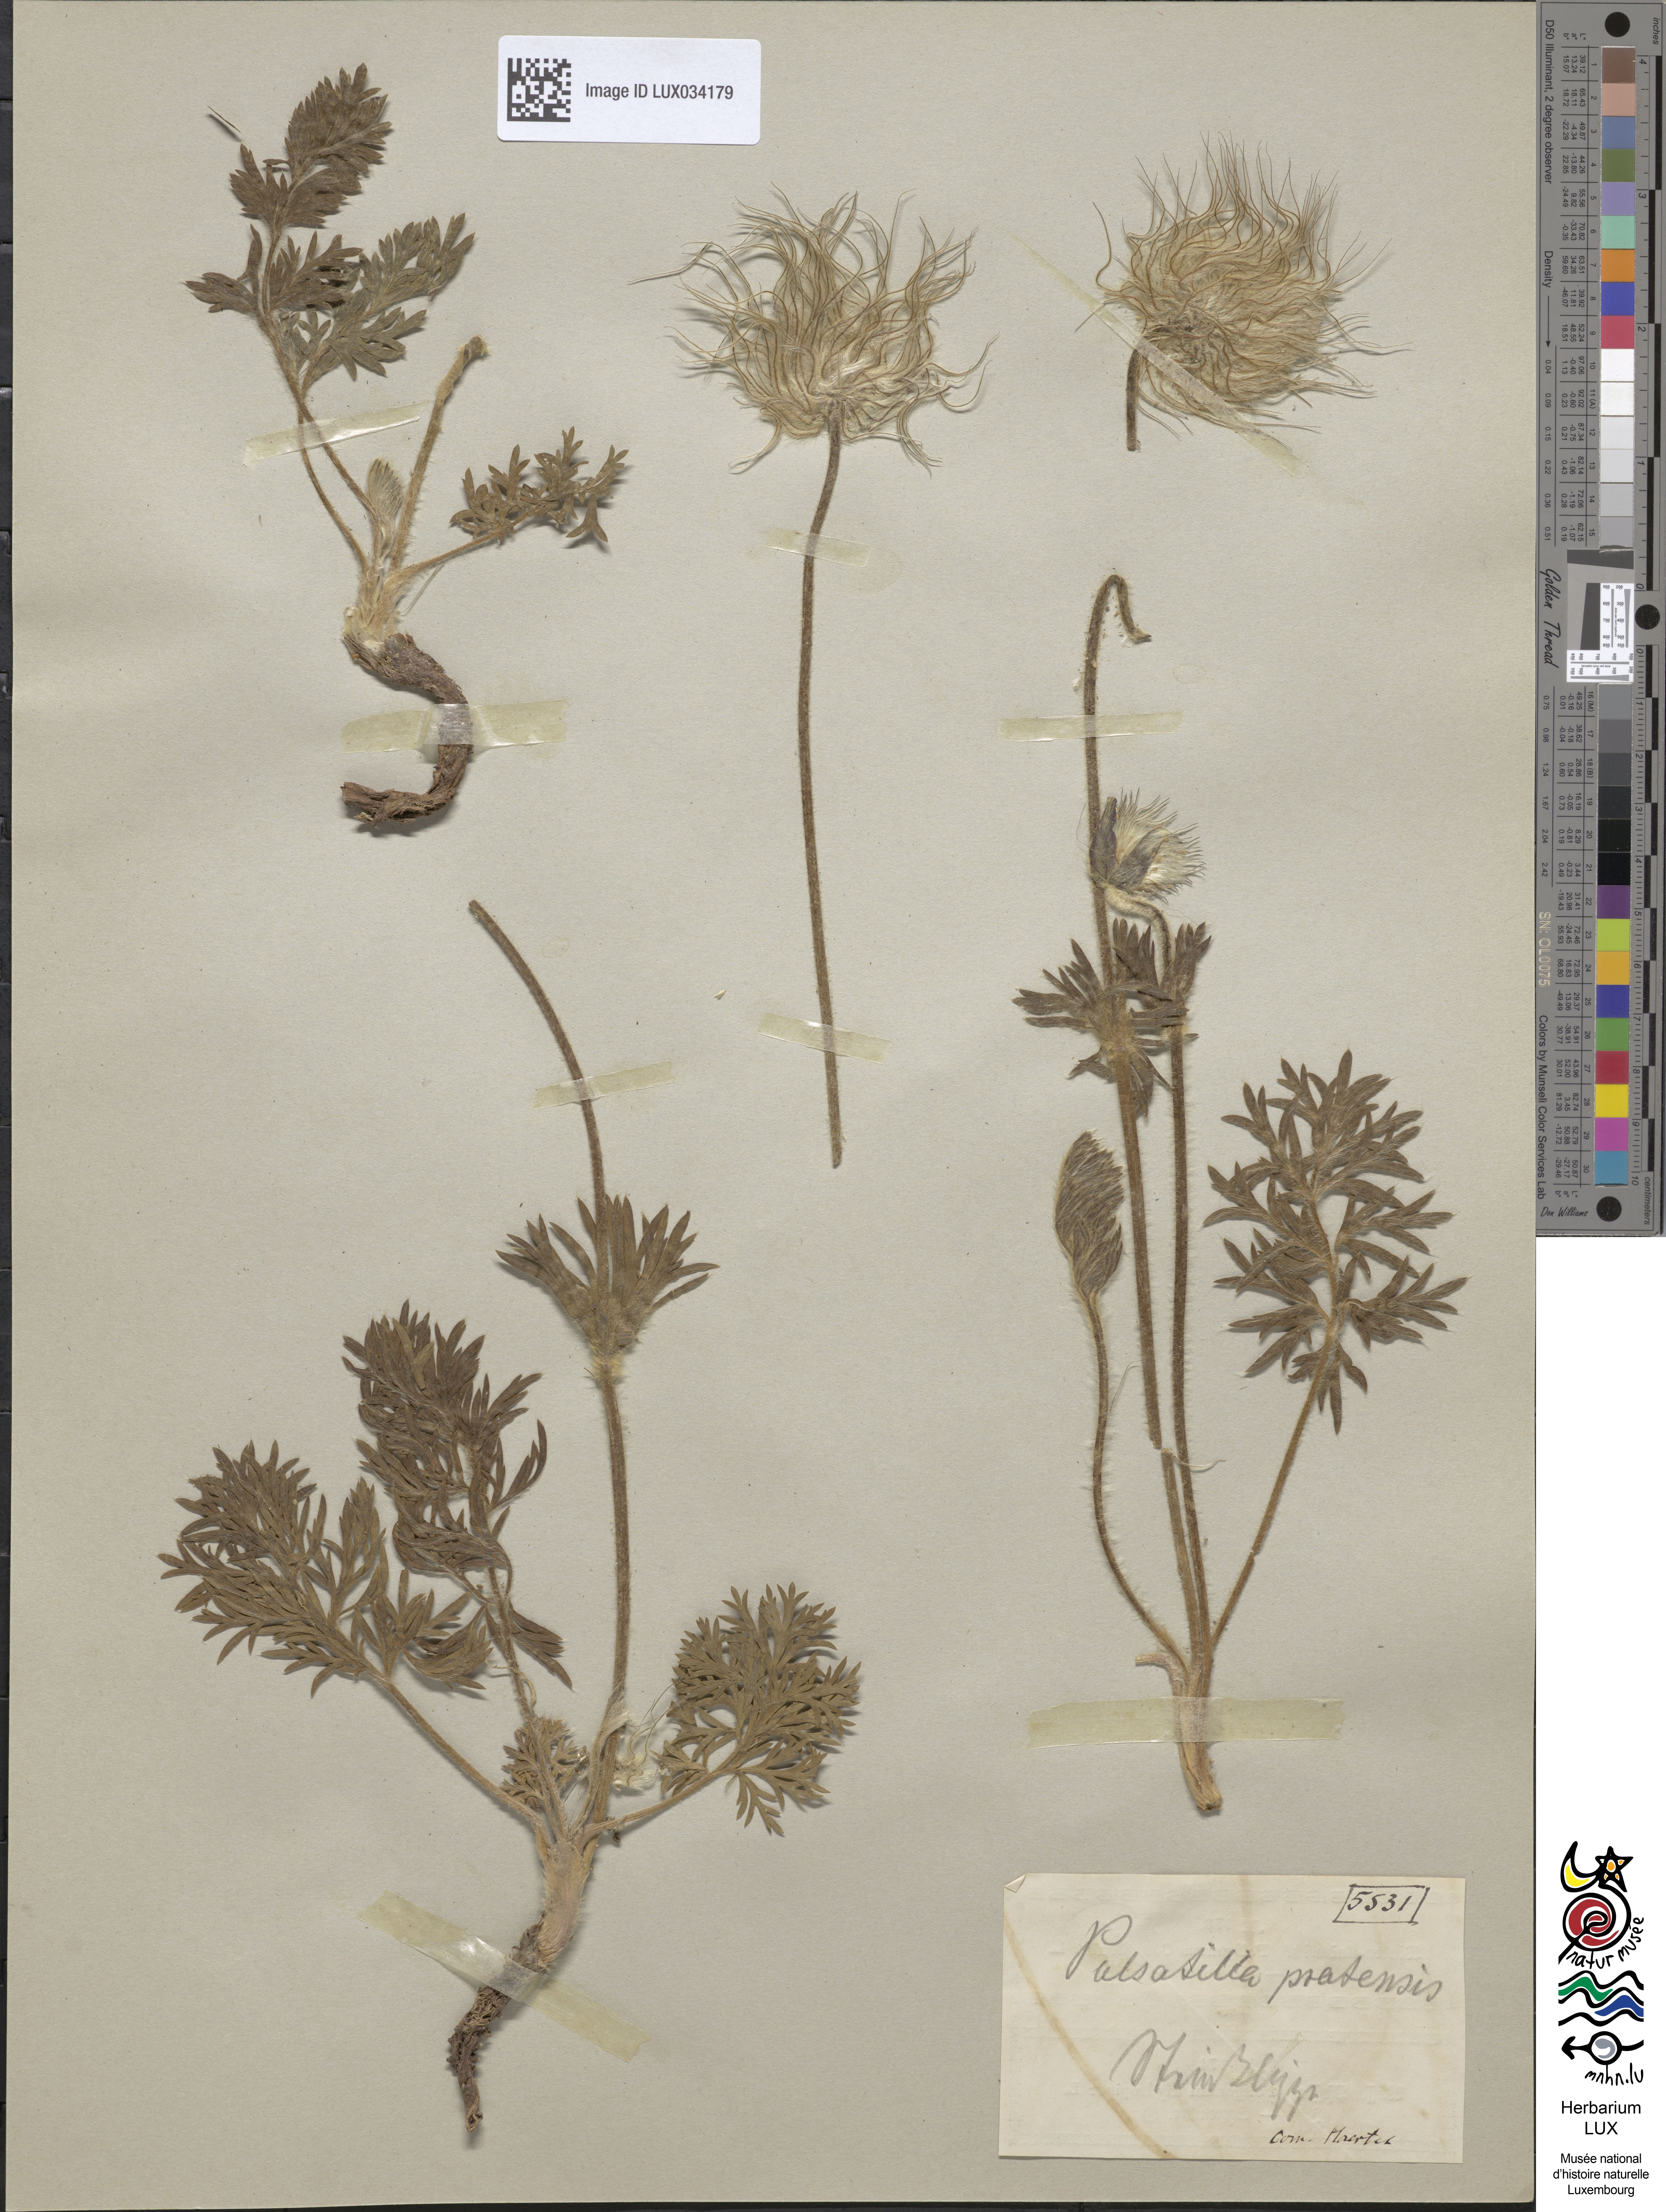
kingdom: Plantae
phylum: Tracheophyta
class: Magnoliopsida
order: Ranunculales
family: Ranunculaceae
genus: Pulsatilla
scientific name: Pulsatilla pratensis
